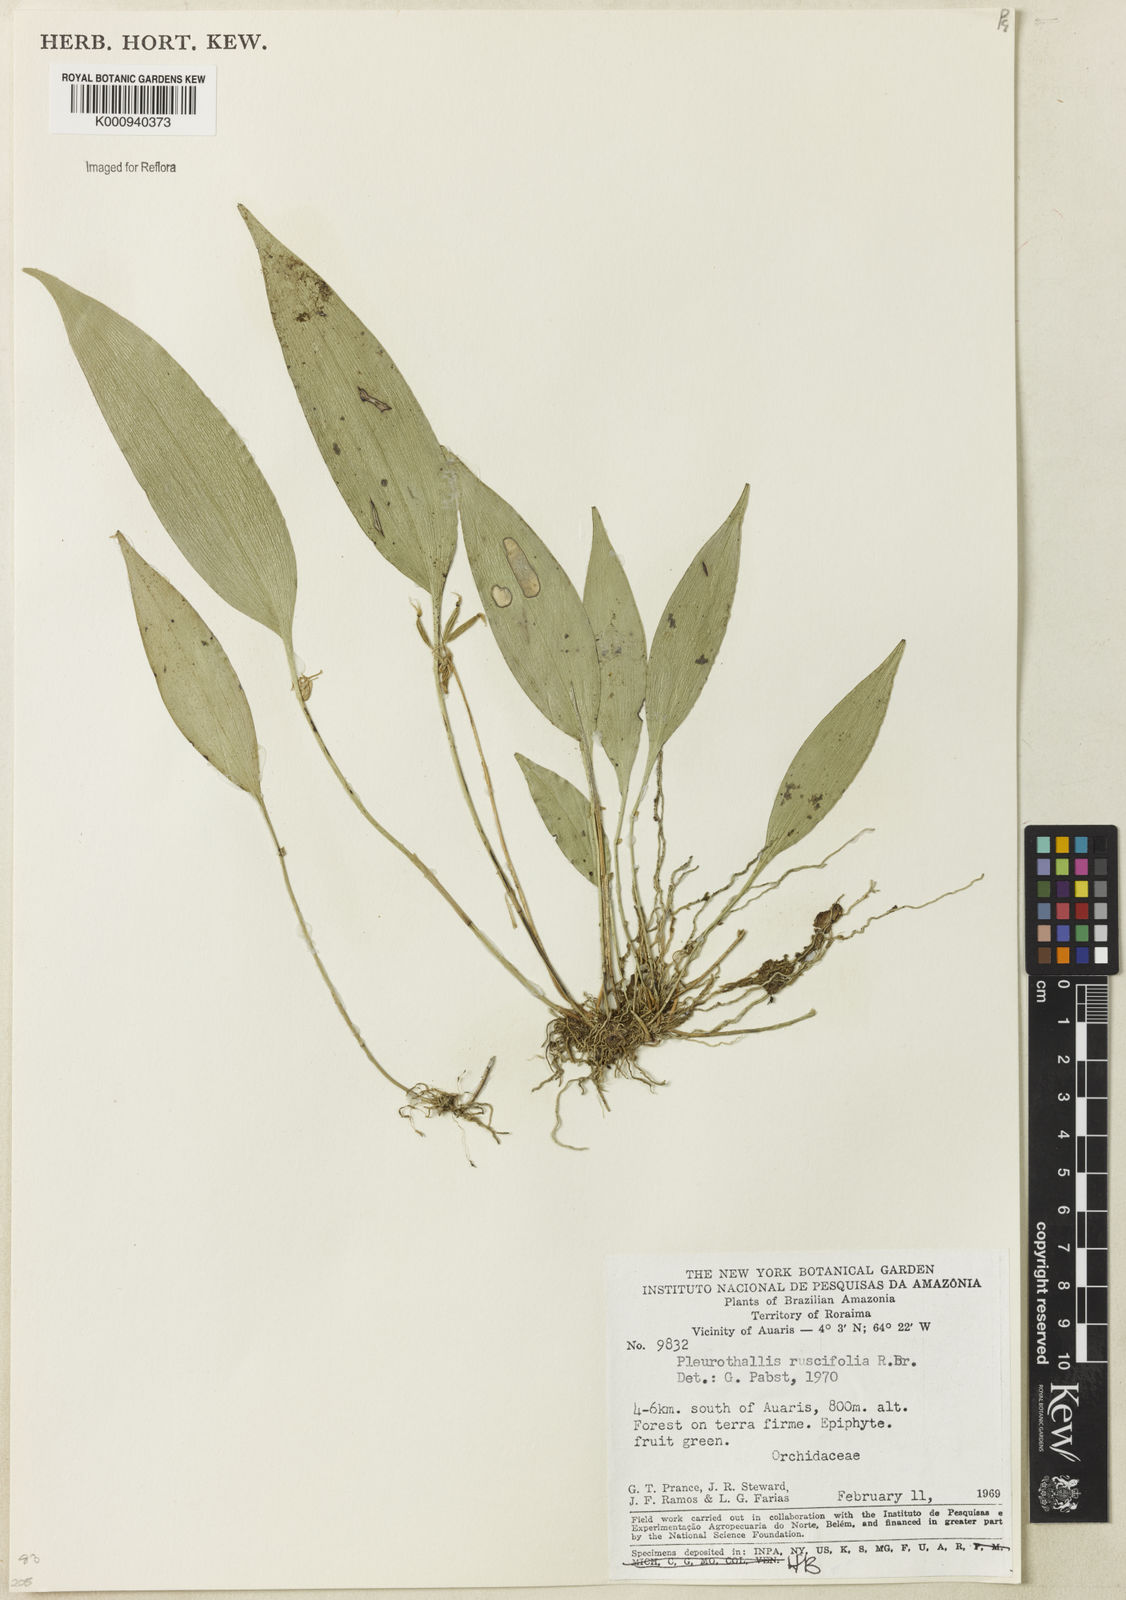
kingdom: Plantae
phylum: Tracheophyta
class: Liliopsida
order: Asparagales
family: Orchidaceae
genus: Pleurothallis
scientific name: Pleurothallis ruscifolia
